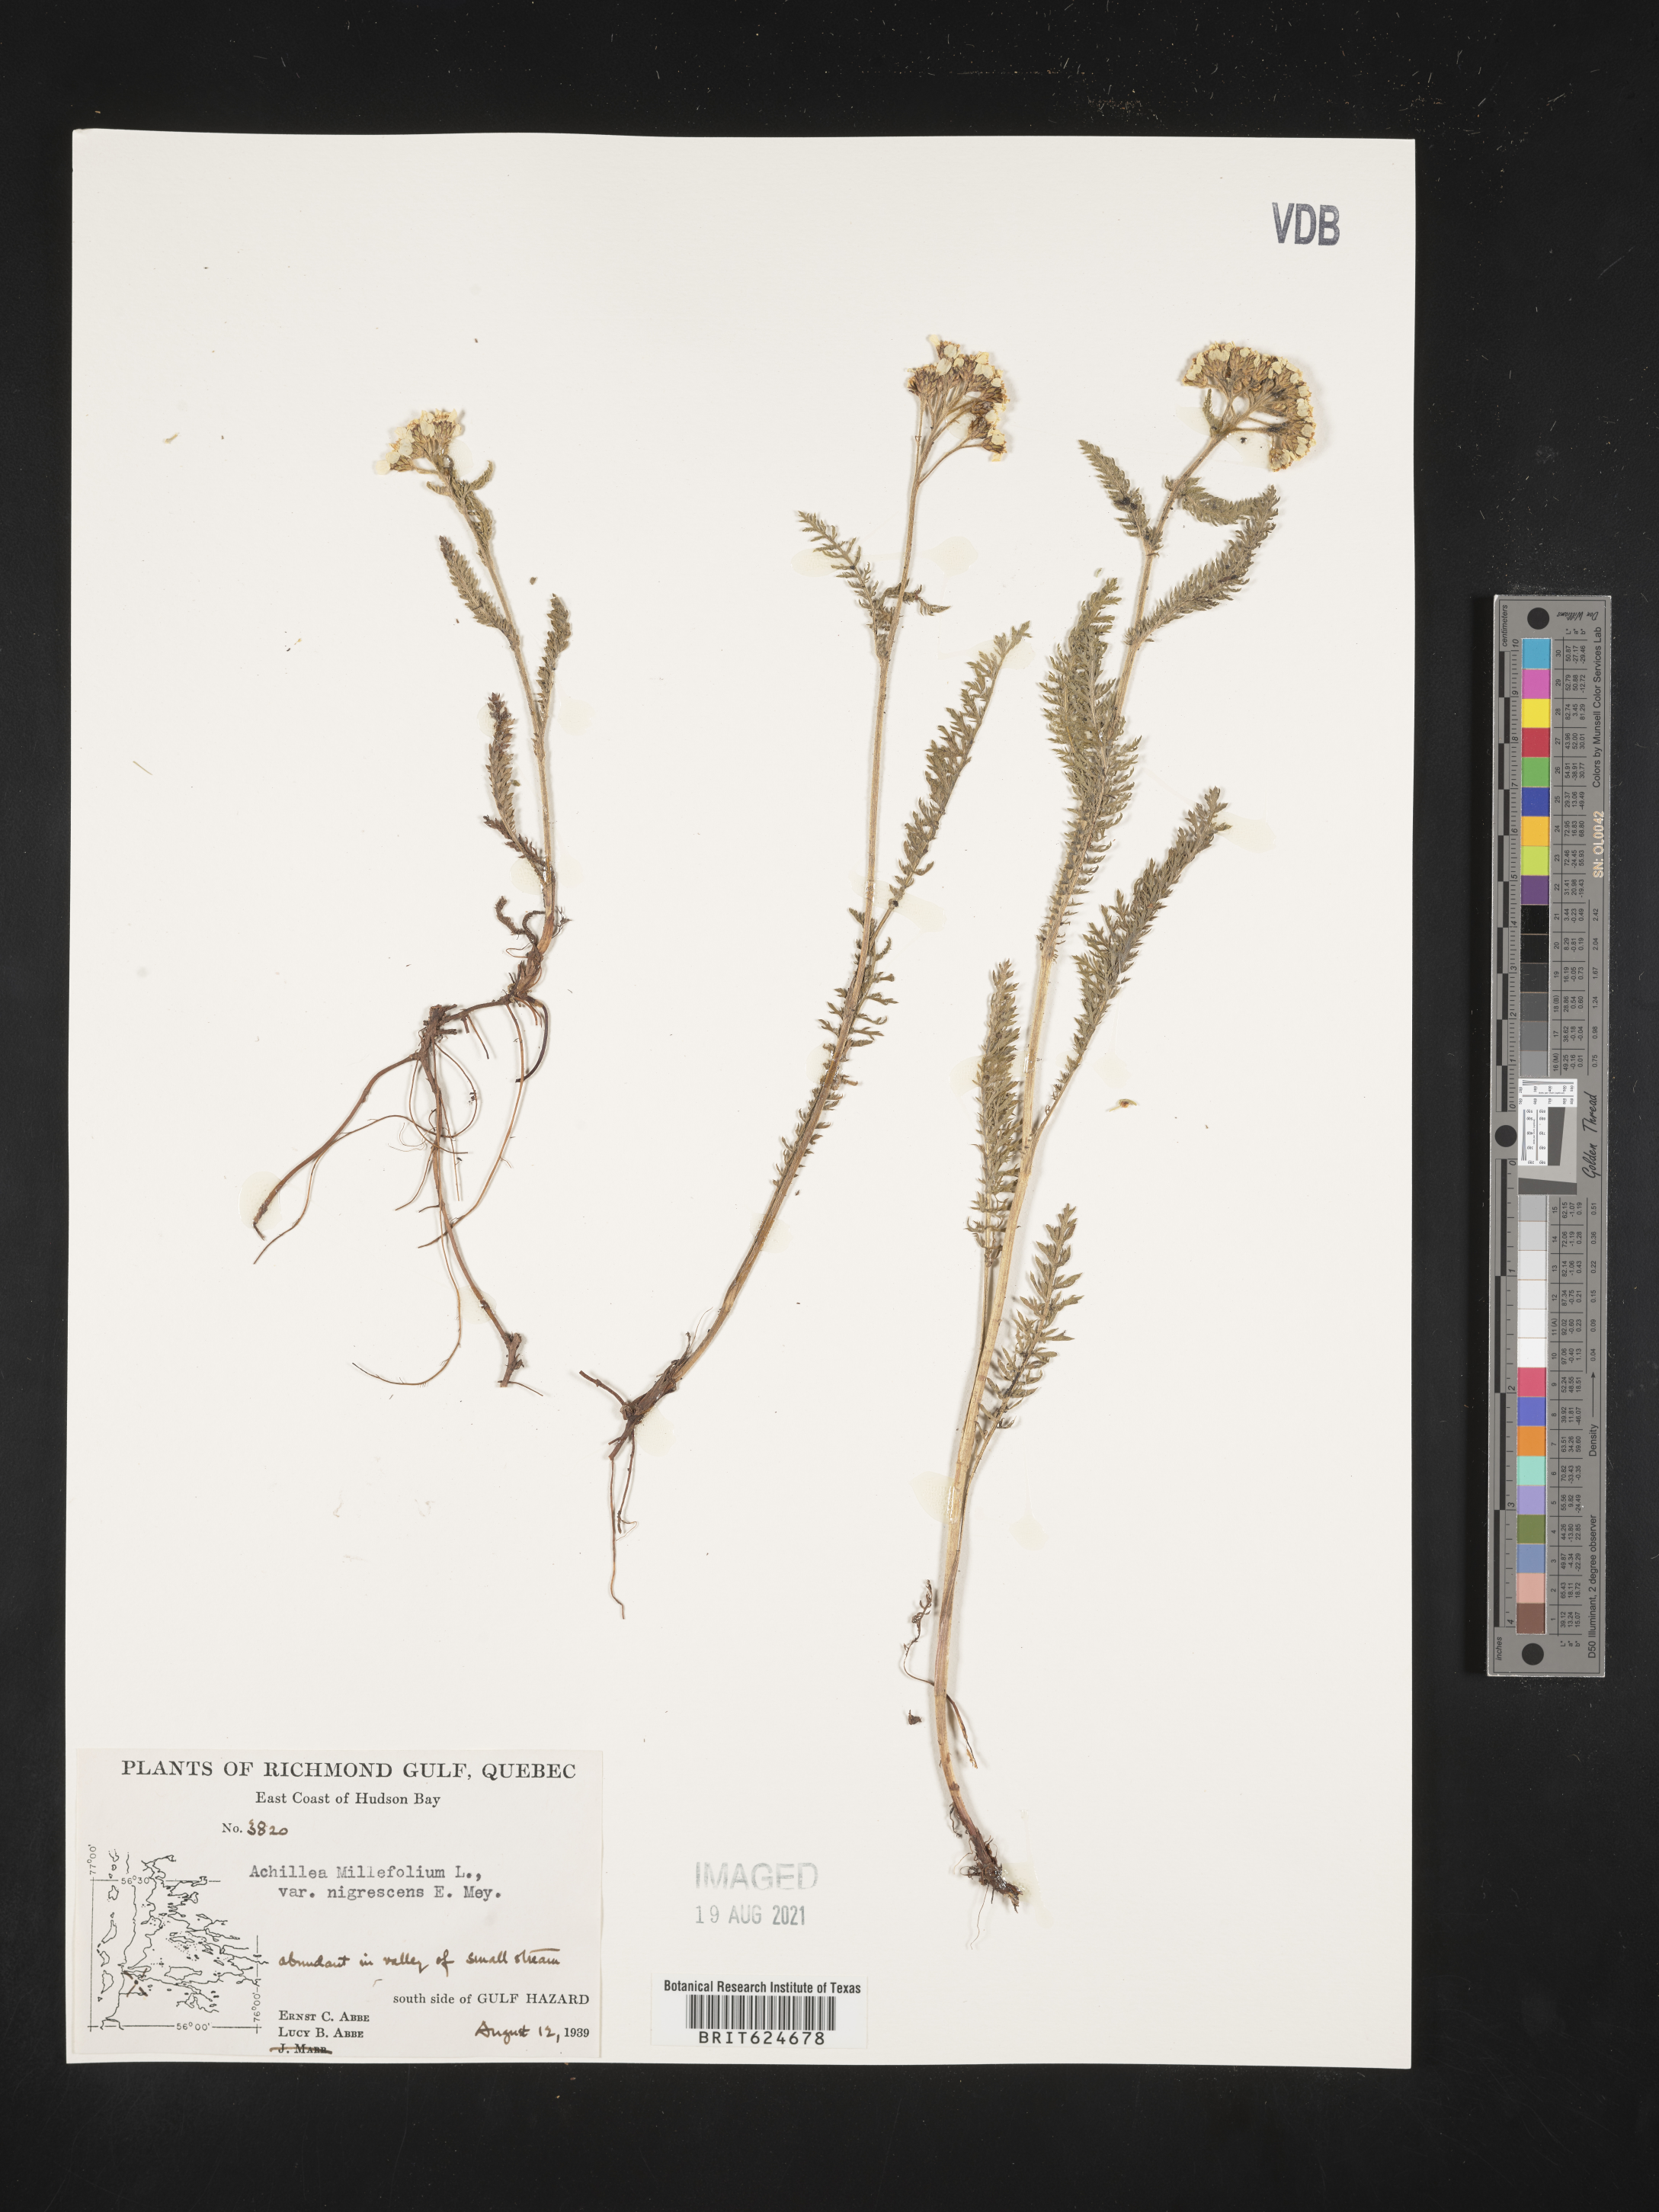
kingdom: Plantae
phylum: Tracheophyta
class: Magnoliopsida
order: Asterales
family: Asteraceae
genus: Achillea
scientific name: Achillea millefolium
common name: Yarrow
